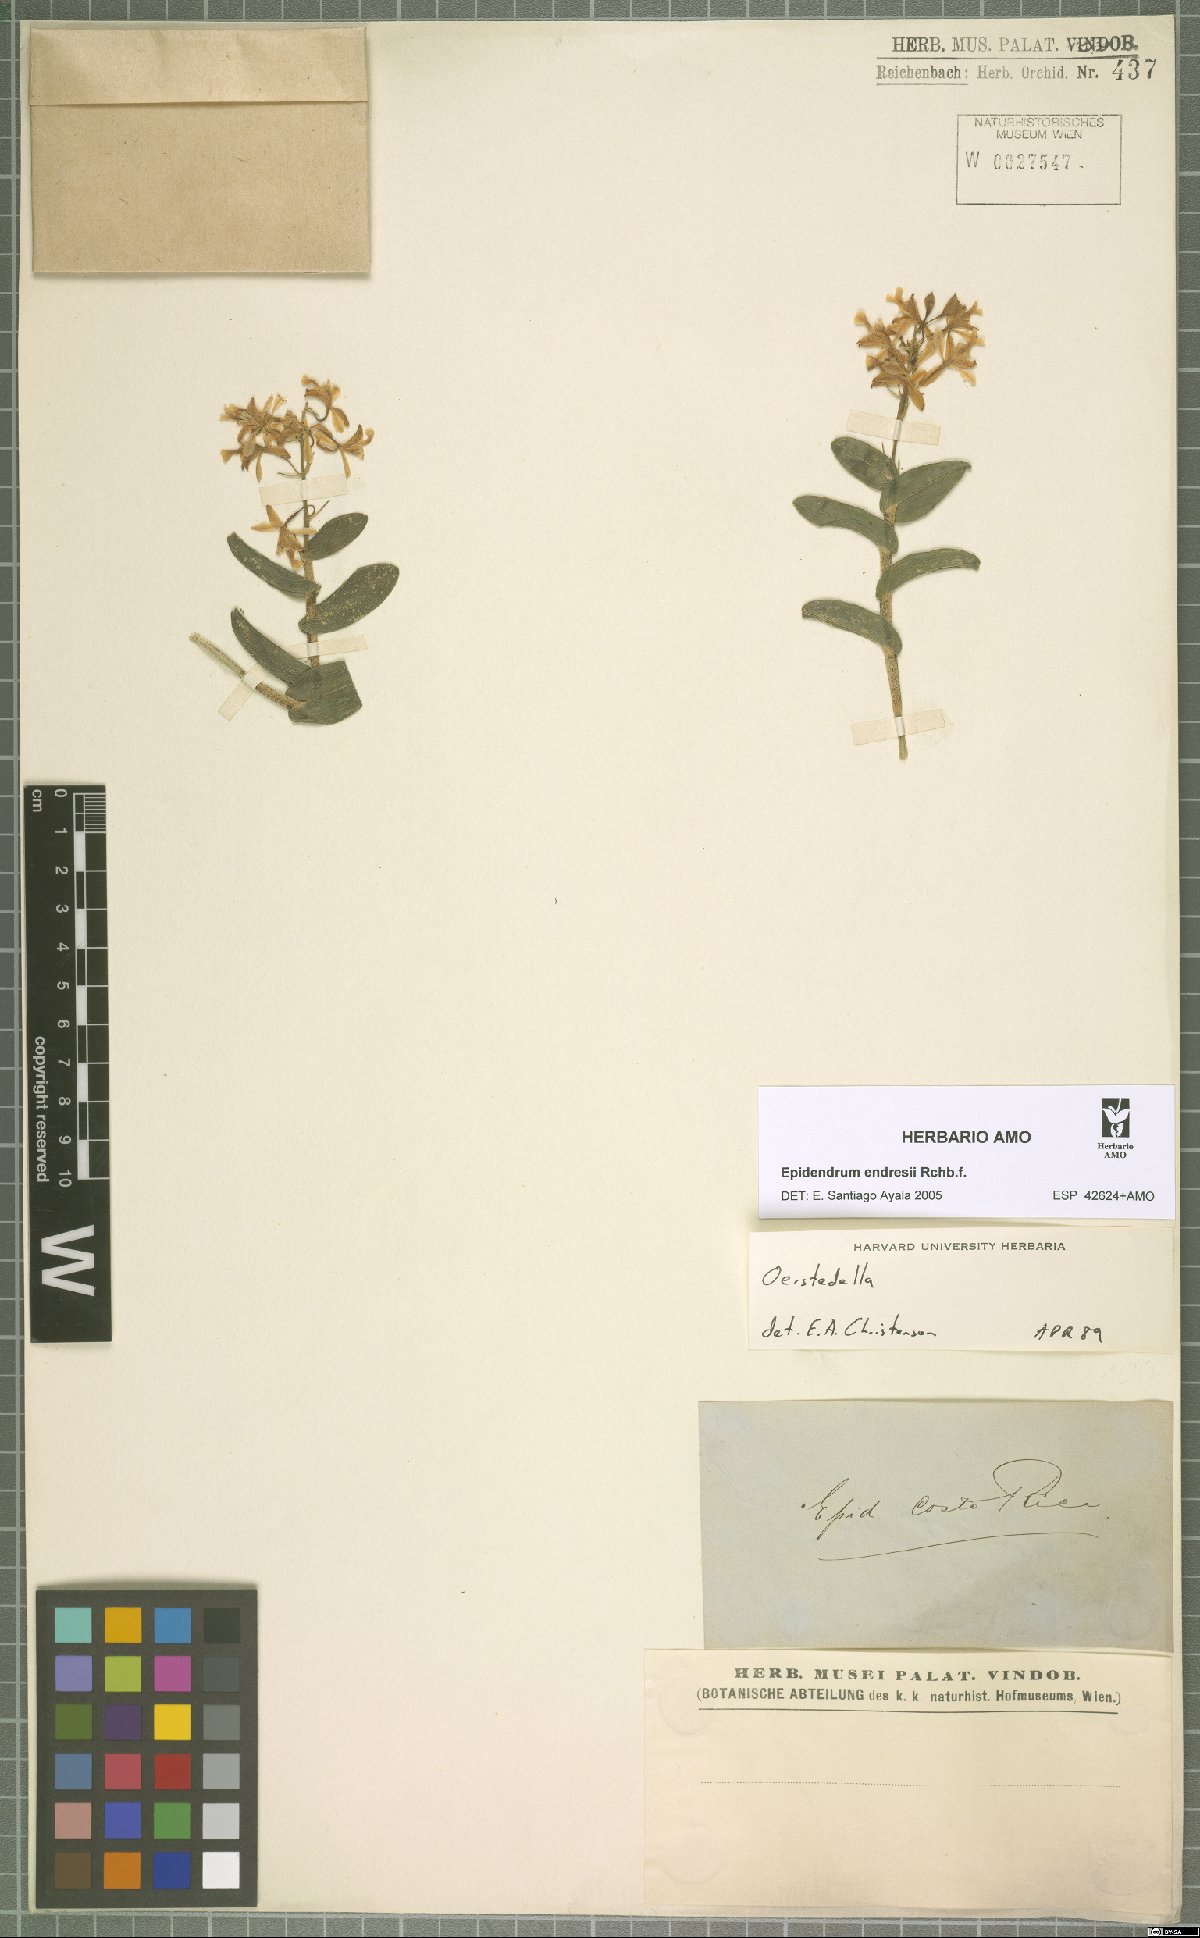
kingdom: Plantae
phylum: Tracheophyta
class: Liliopsida
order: Asparagales
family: Orchidaceae
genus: Epidendrum
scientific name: Epidendrum endresii
